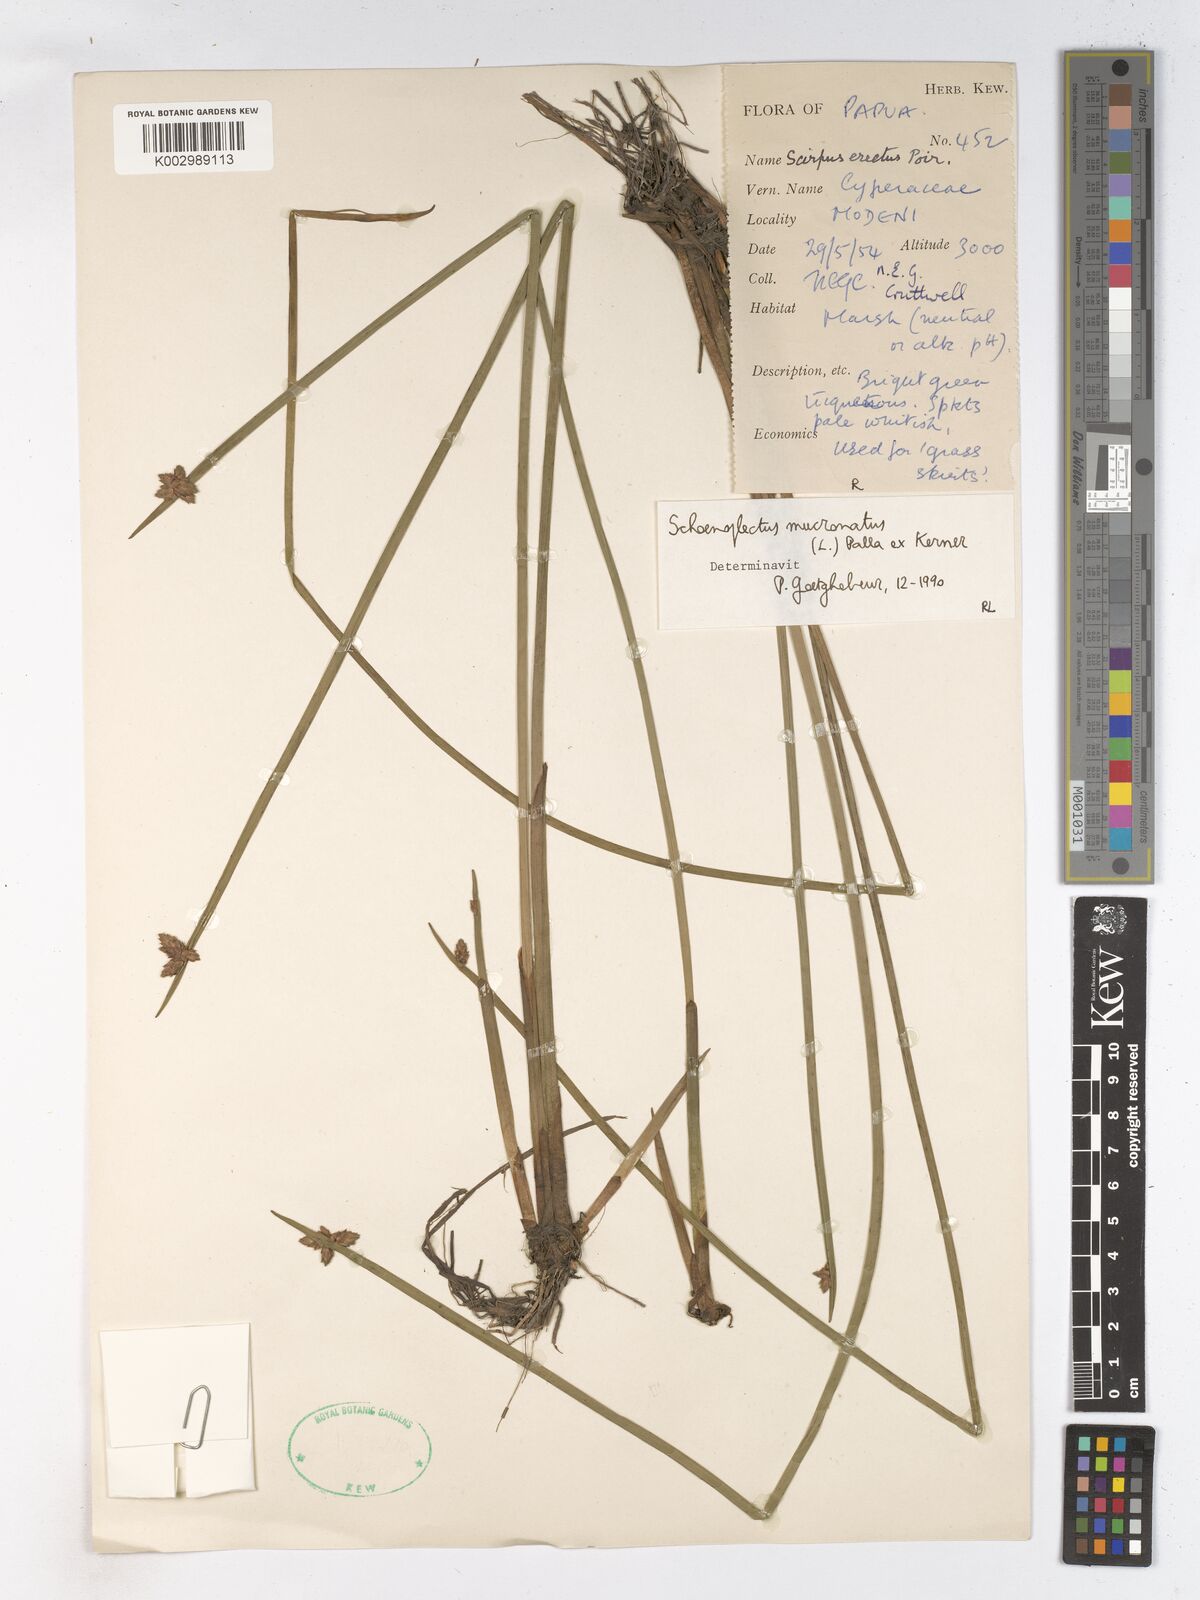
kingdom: Plantae
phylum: Tracheophyta
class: Liliopsida
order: Poales
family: Cyperaceae
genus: Schoenoplectiella
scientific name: Schoenoplectiella mucronata
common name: Bog bulrush
